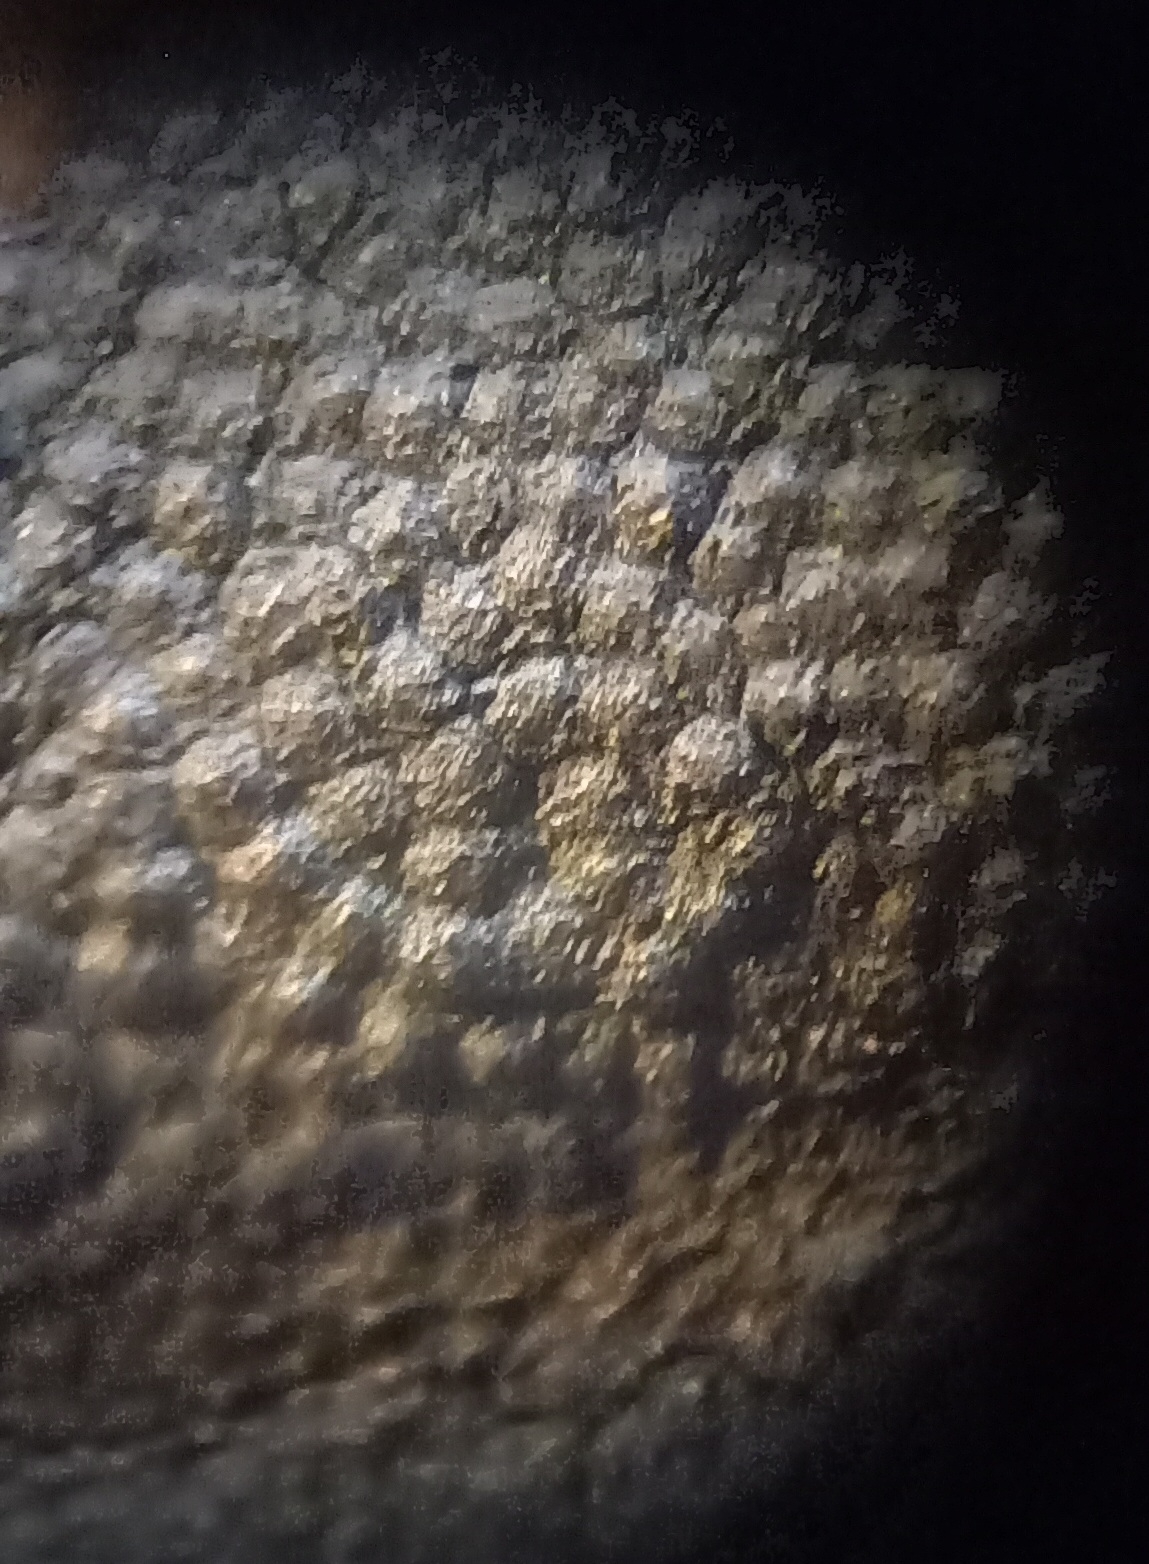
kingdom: Fungi
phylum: Ascomycota
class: Sordariomycetes
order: Xylariales
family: Hypoxylaceae
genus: Hypoxylon
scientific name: Hypoxylon macrocarpum
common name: skorpe-kulbær
